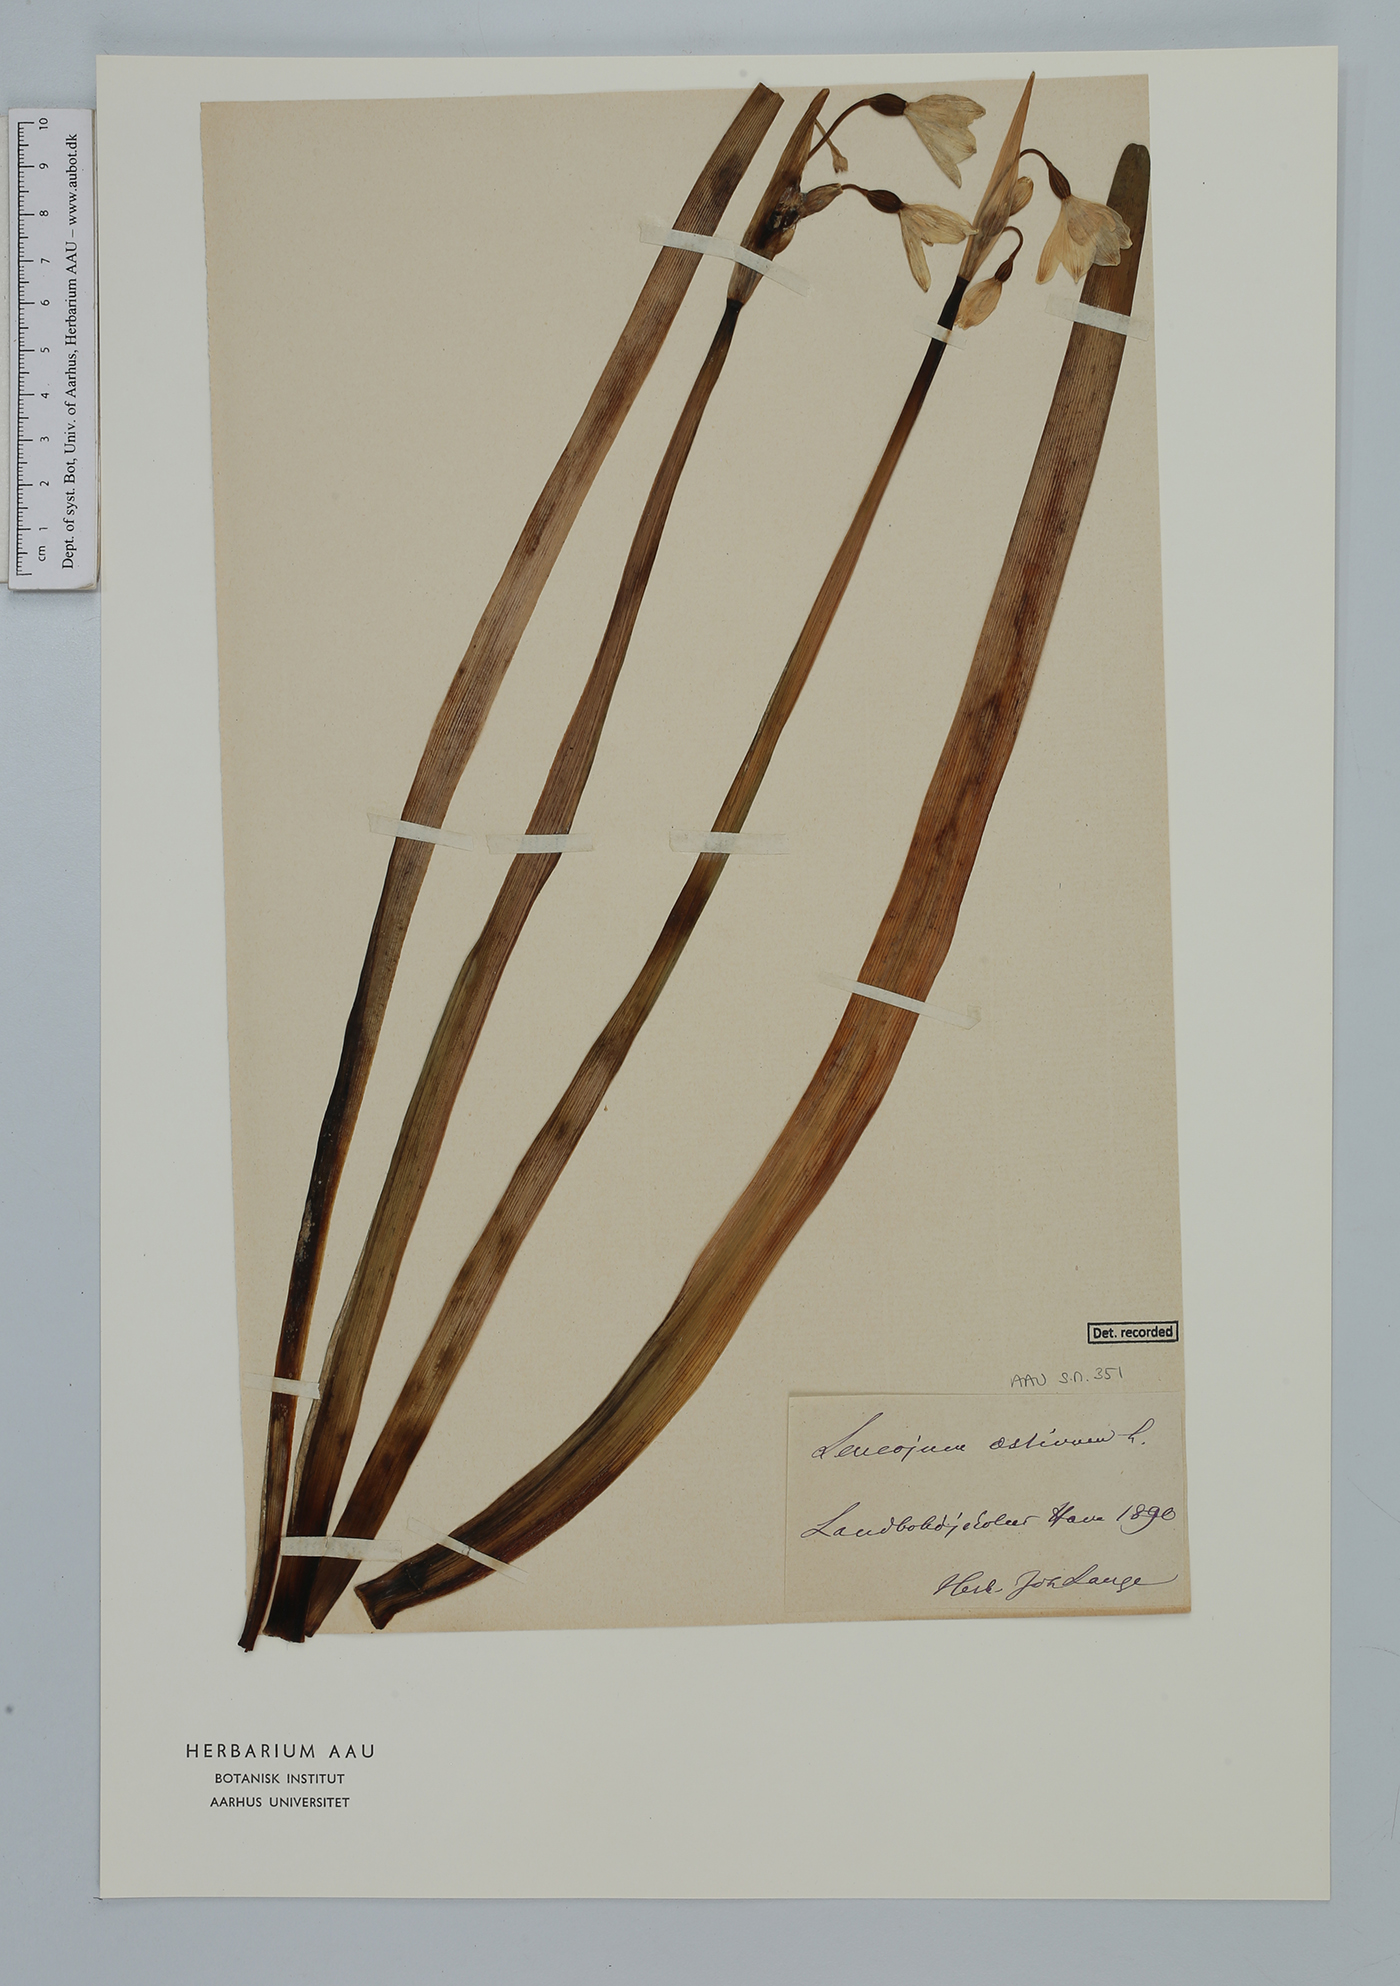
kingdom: Plantae
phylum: Tracheophyta
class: Liliopsida
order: Asparagales
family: Amaryllidaceae
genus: Leucojum
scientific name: Leucojum aestivum
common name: Summer snowflake
